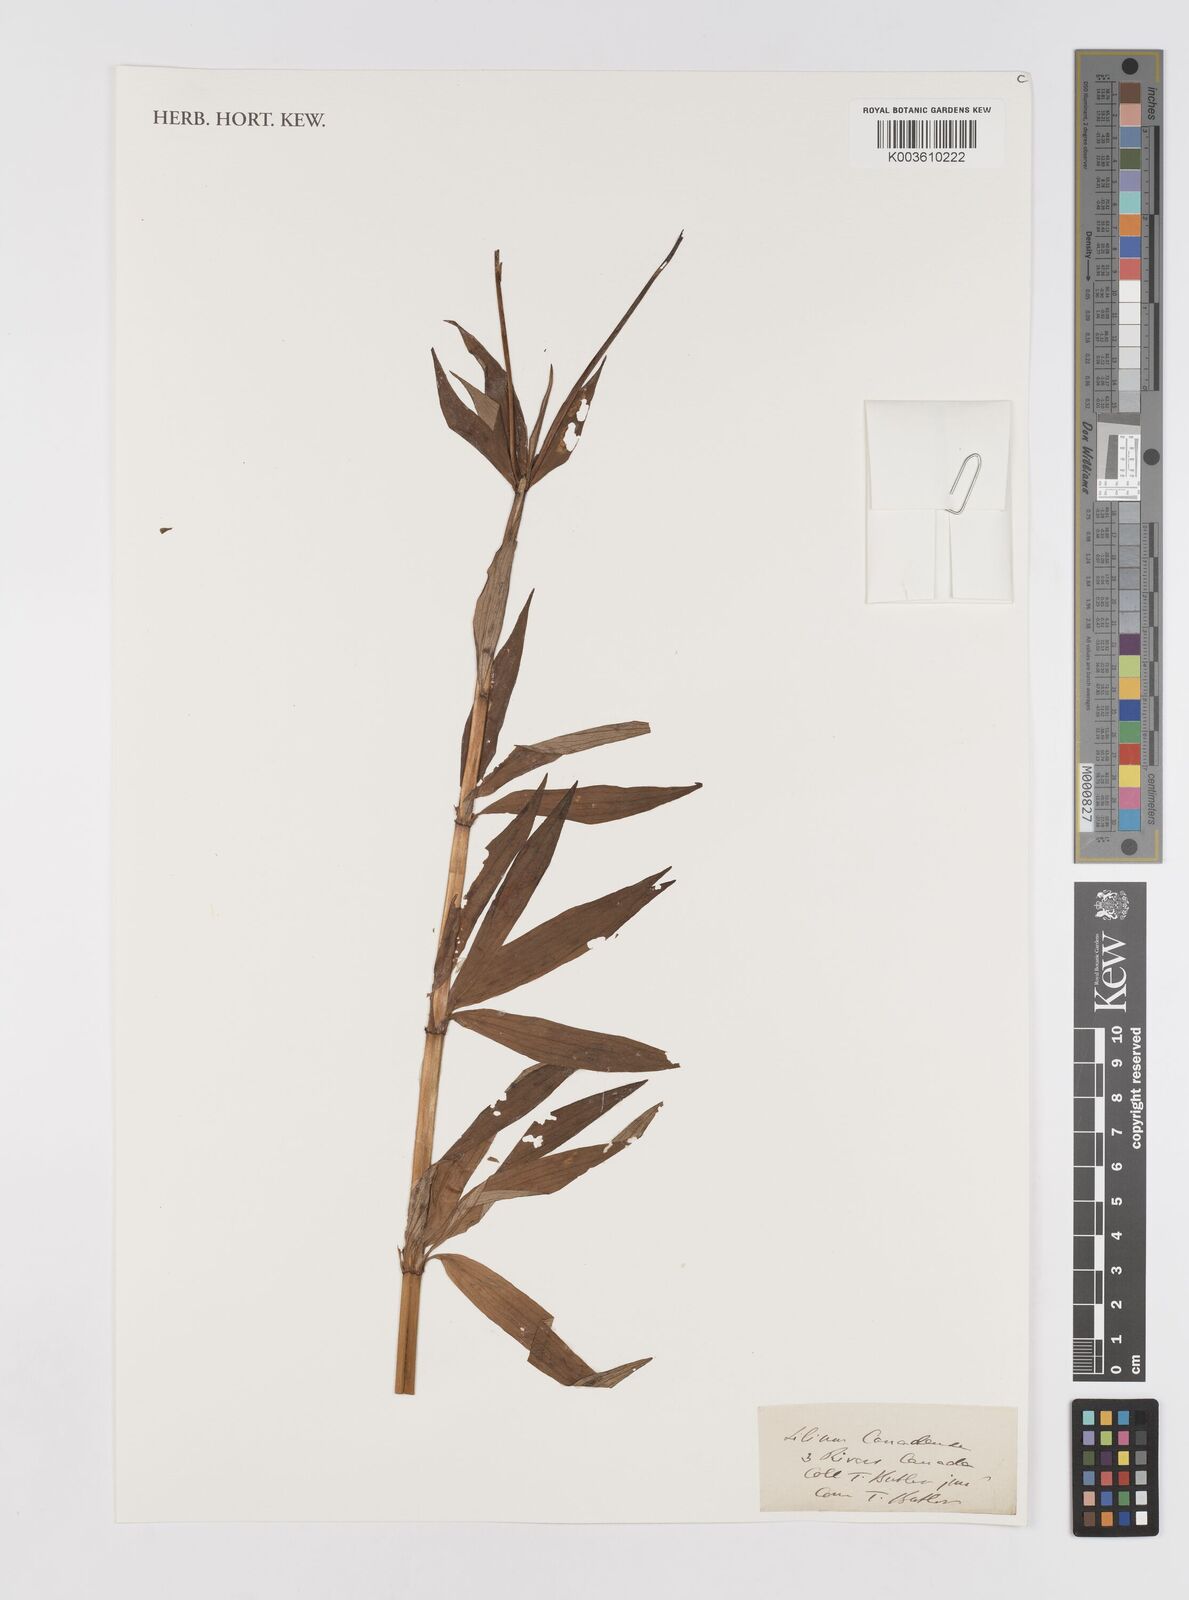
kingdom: Plantae
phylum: Tracheophyta
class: Liliopsida
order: Liliales
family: Liliaceae
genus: Lilium
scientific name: Lilium canadense
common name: Canada lily
